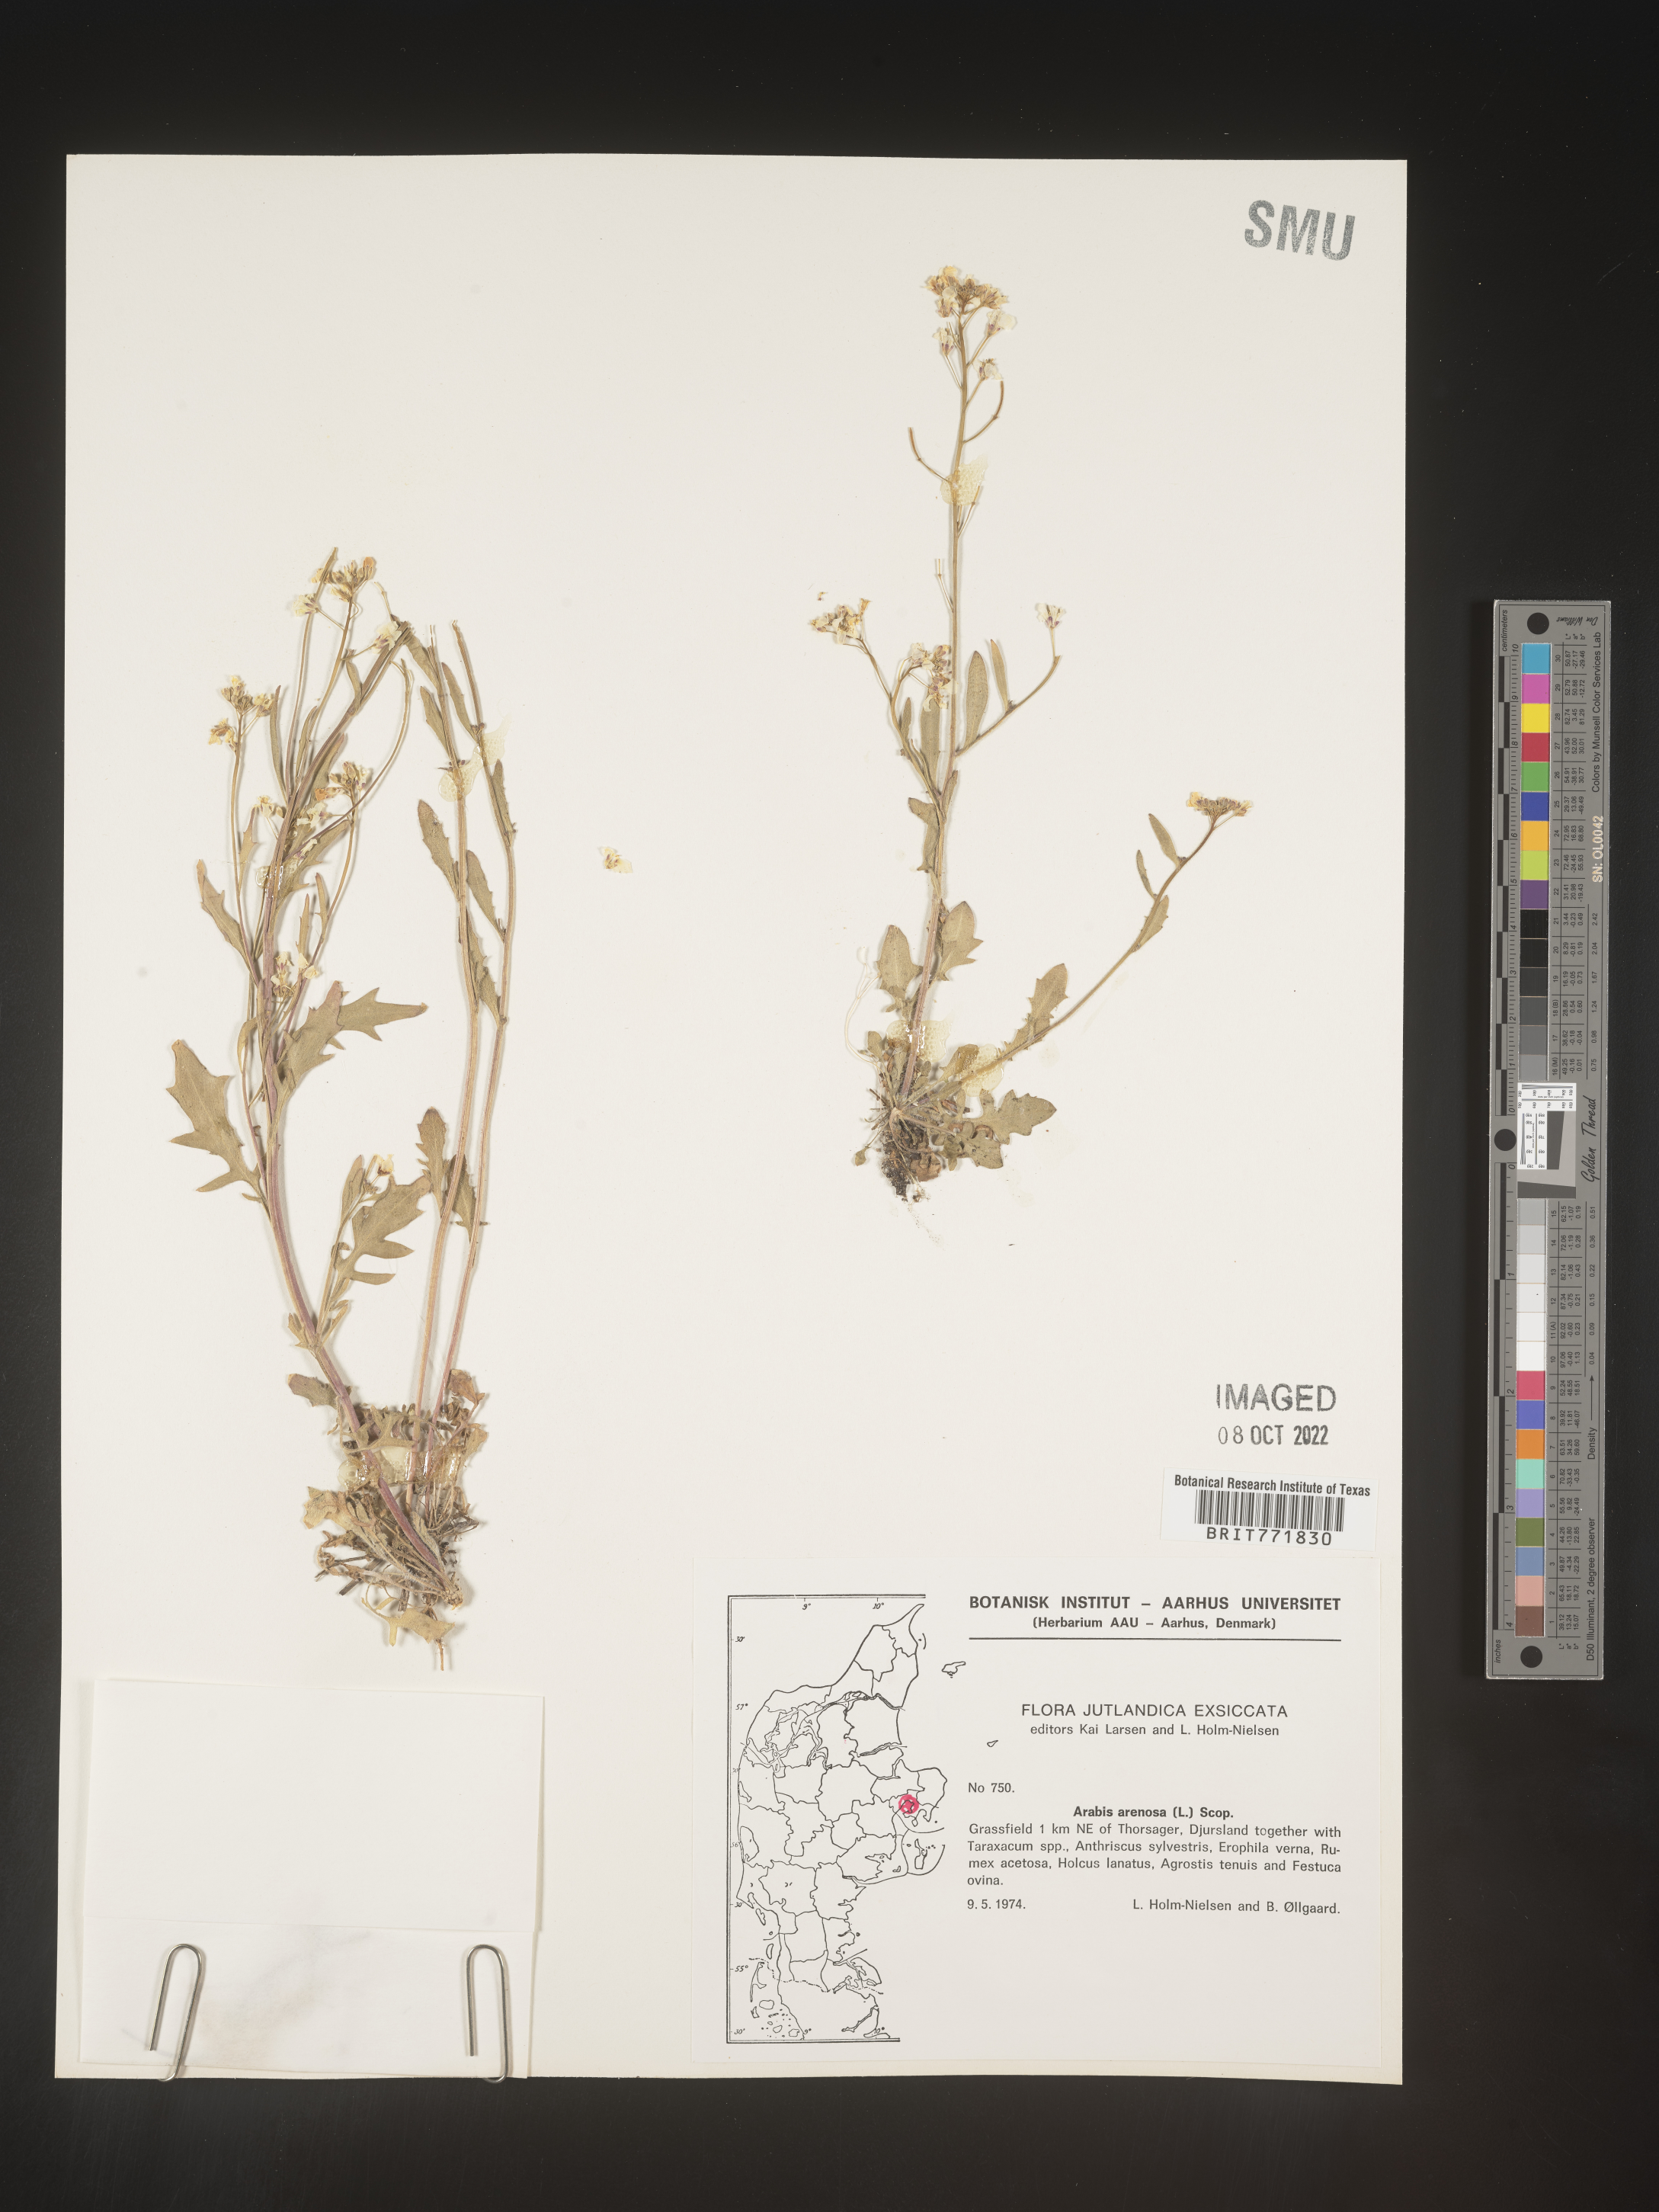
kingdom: Plantae
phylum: Tracheophyta
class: Magnoliopsida
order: Brassicales
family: Brassicaceae
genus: Arabis
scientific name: Arabis
